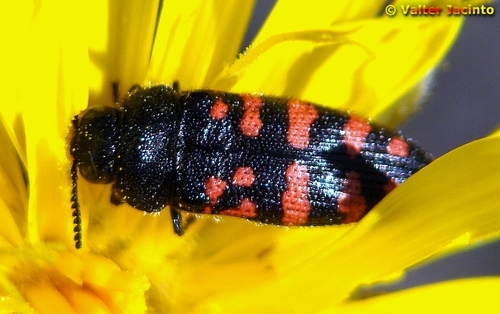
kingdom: Animalia
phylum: Arthropoda
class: Insecta
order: Coleoptera
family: Buprestidae
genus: Acmaeodera
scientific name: Acmaeodera pulchra
